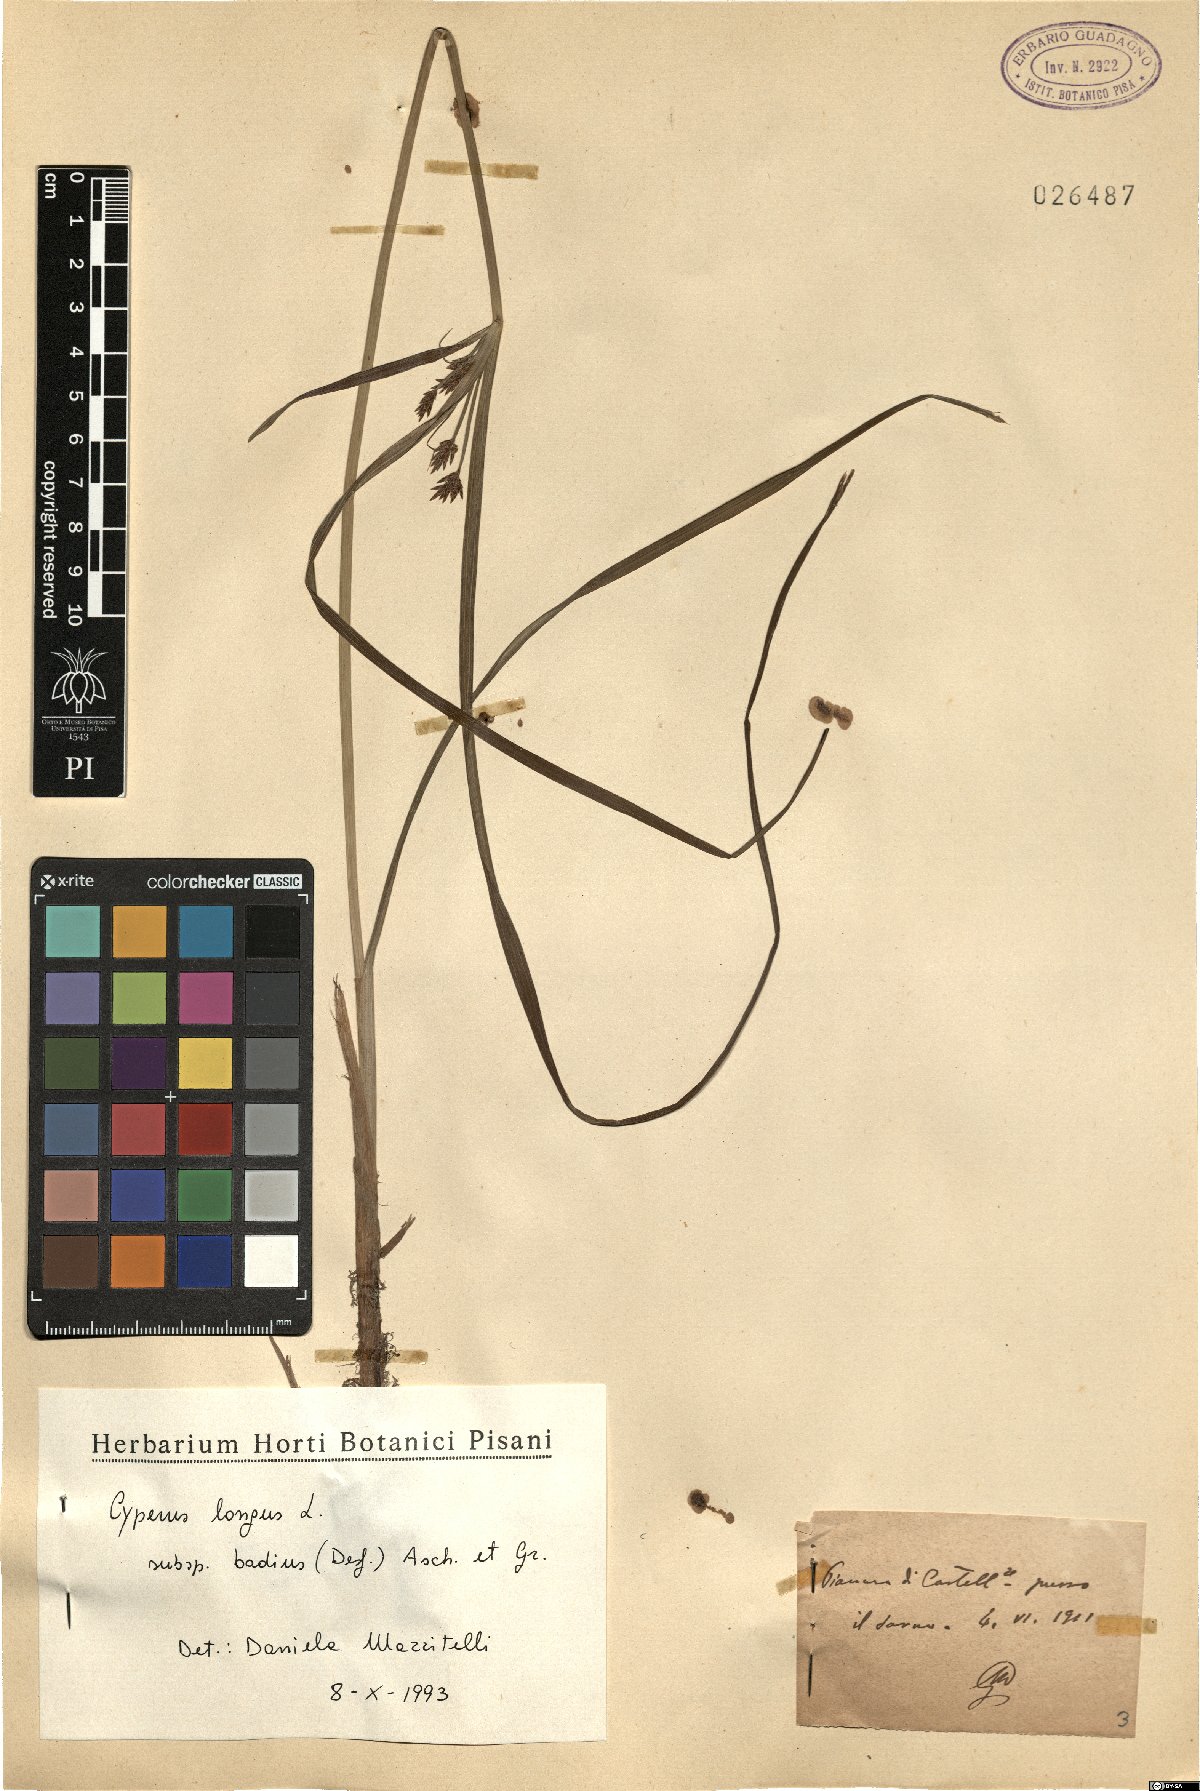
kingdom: Plantae
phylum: Tracheophyta
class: Liliopsida
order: Poales
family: Cyperaceae
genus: Cyperus
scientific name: Cyperus longus
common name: Galingale
